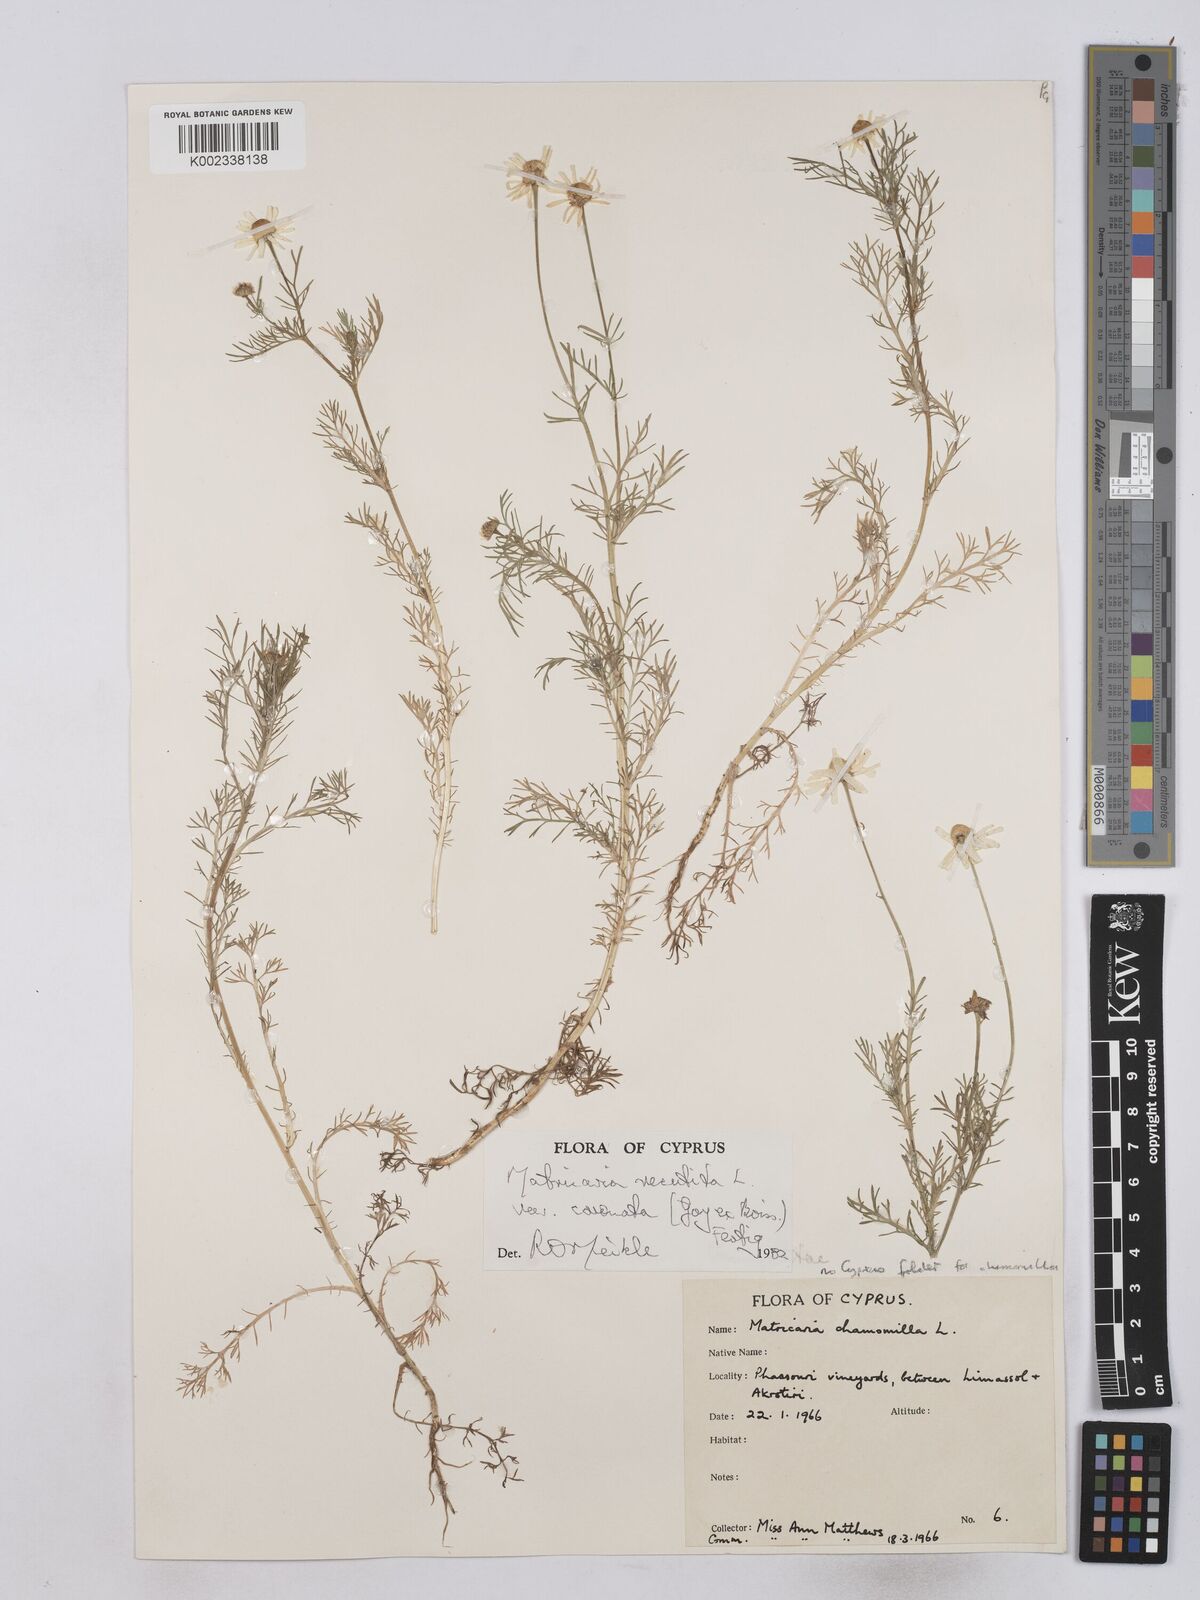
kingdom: Plantae
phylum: Tracheophyta
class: Magnoliopsida
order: Asterales
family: Asteraceae
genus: Matricaria
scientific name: Matricaria chamomilla
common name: Scented mayweed
